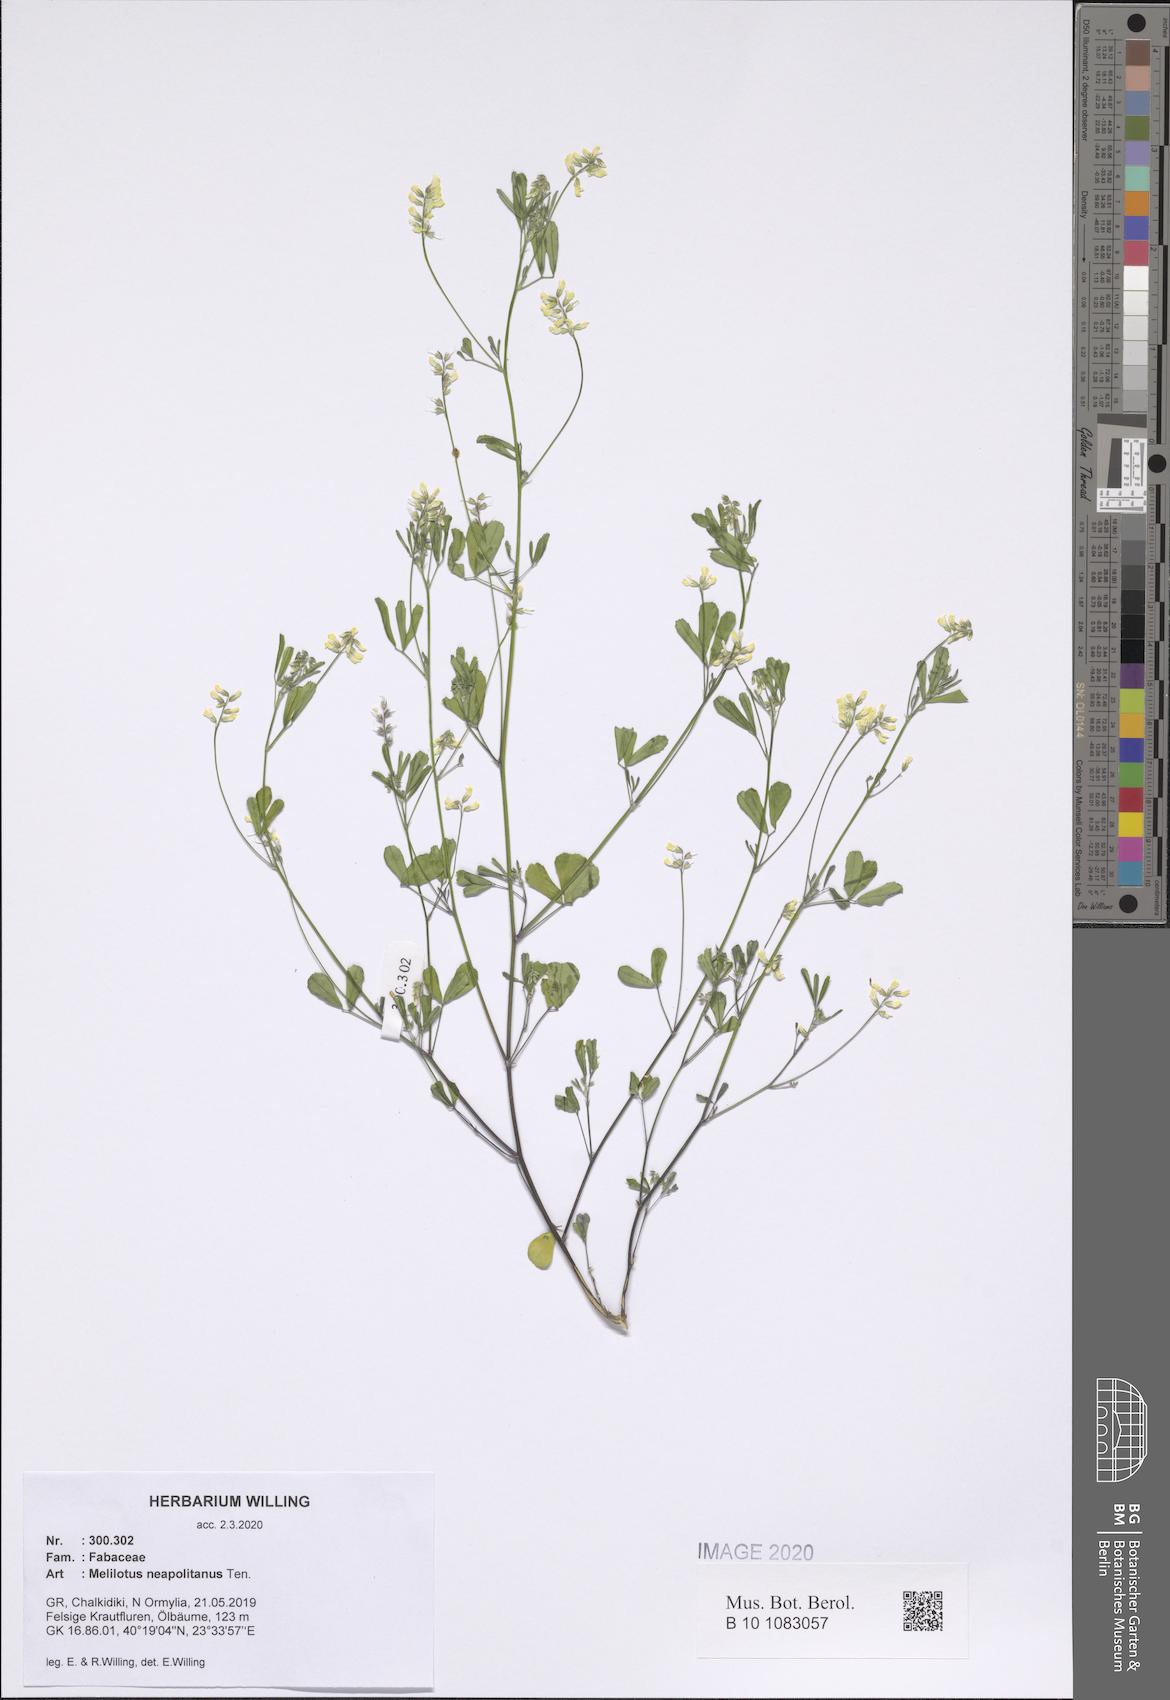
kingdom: Plantae
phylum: Tracheophyta
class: Magnoliopsida
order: Fabales
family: Fabaceae
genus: Melilotus
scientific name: Melilotus neapolitanus
